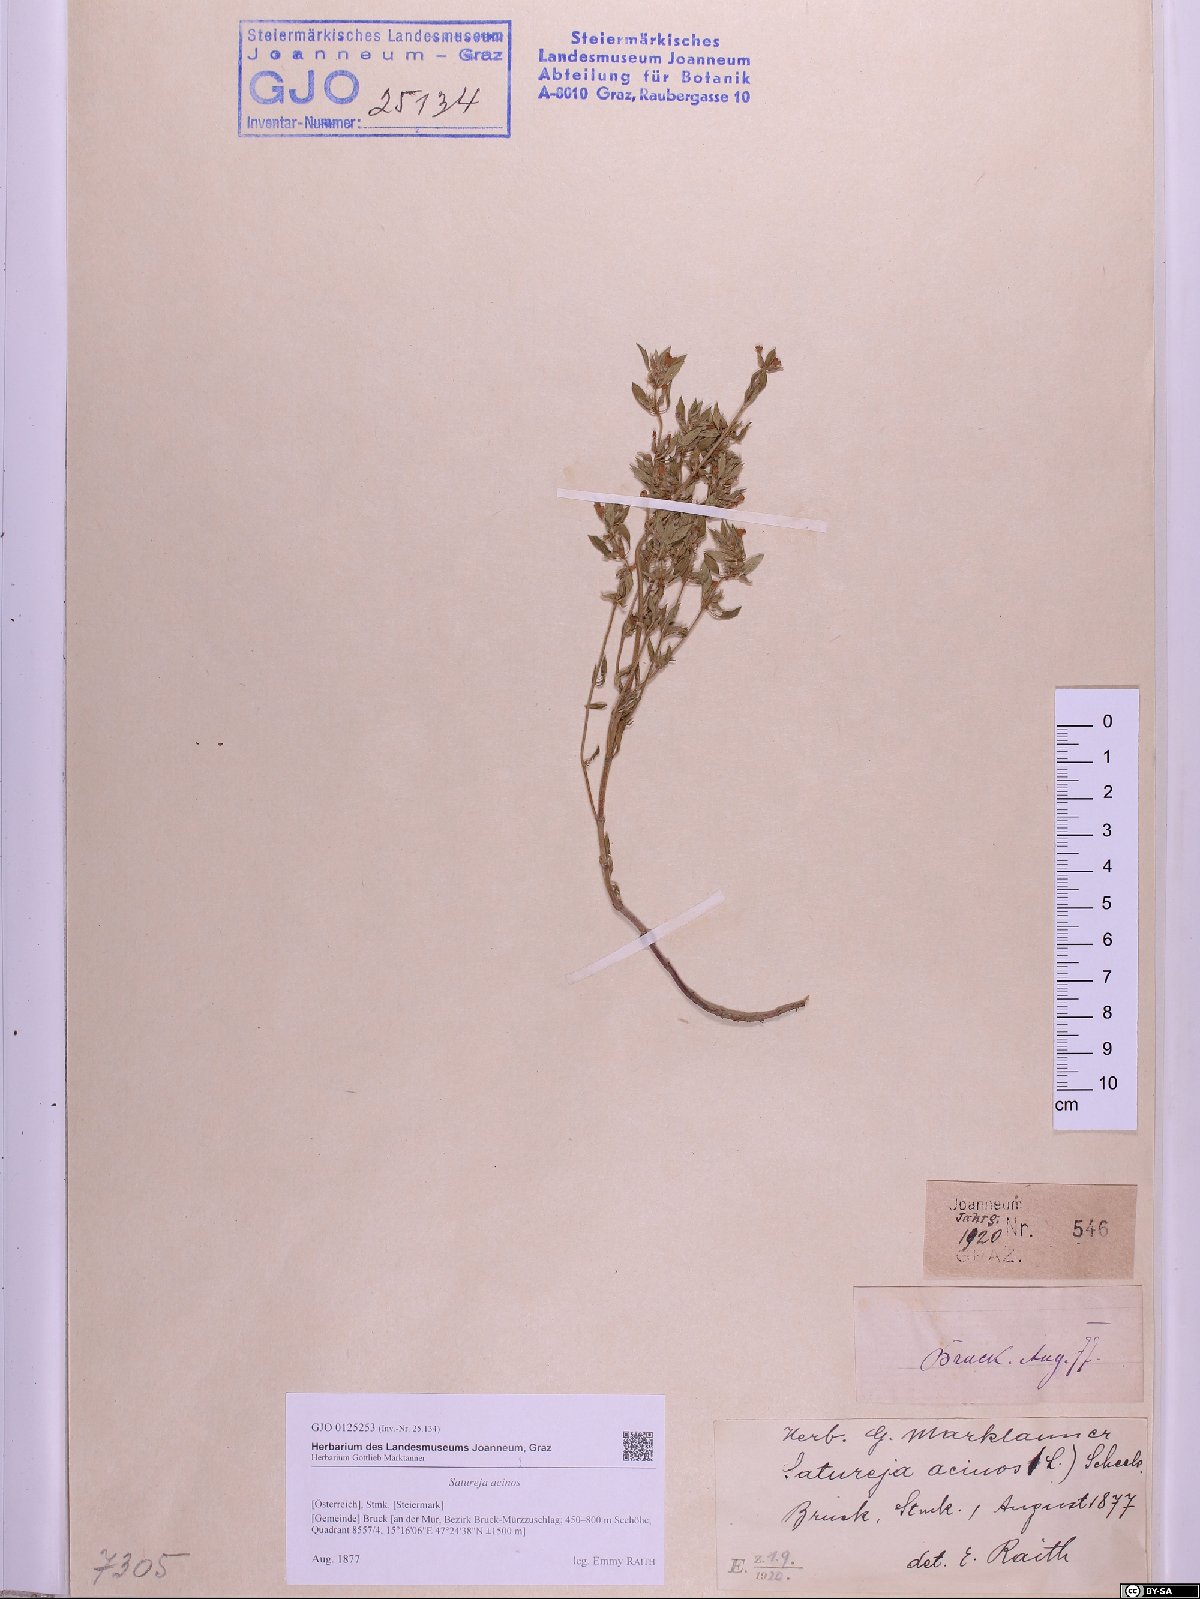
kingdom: Plantae
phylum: Tracheophyta
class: Magnoliopsida
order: Lamiales
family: Lamiaceae
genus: Clinopodium
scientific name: Clinopodium acinos
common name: Basil thyme
